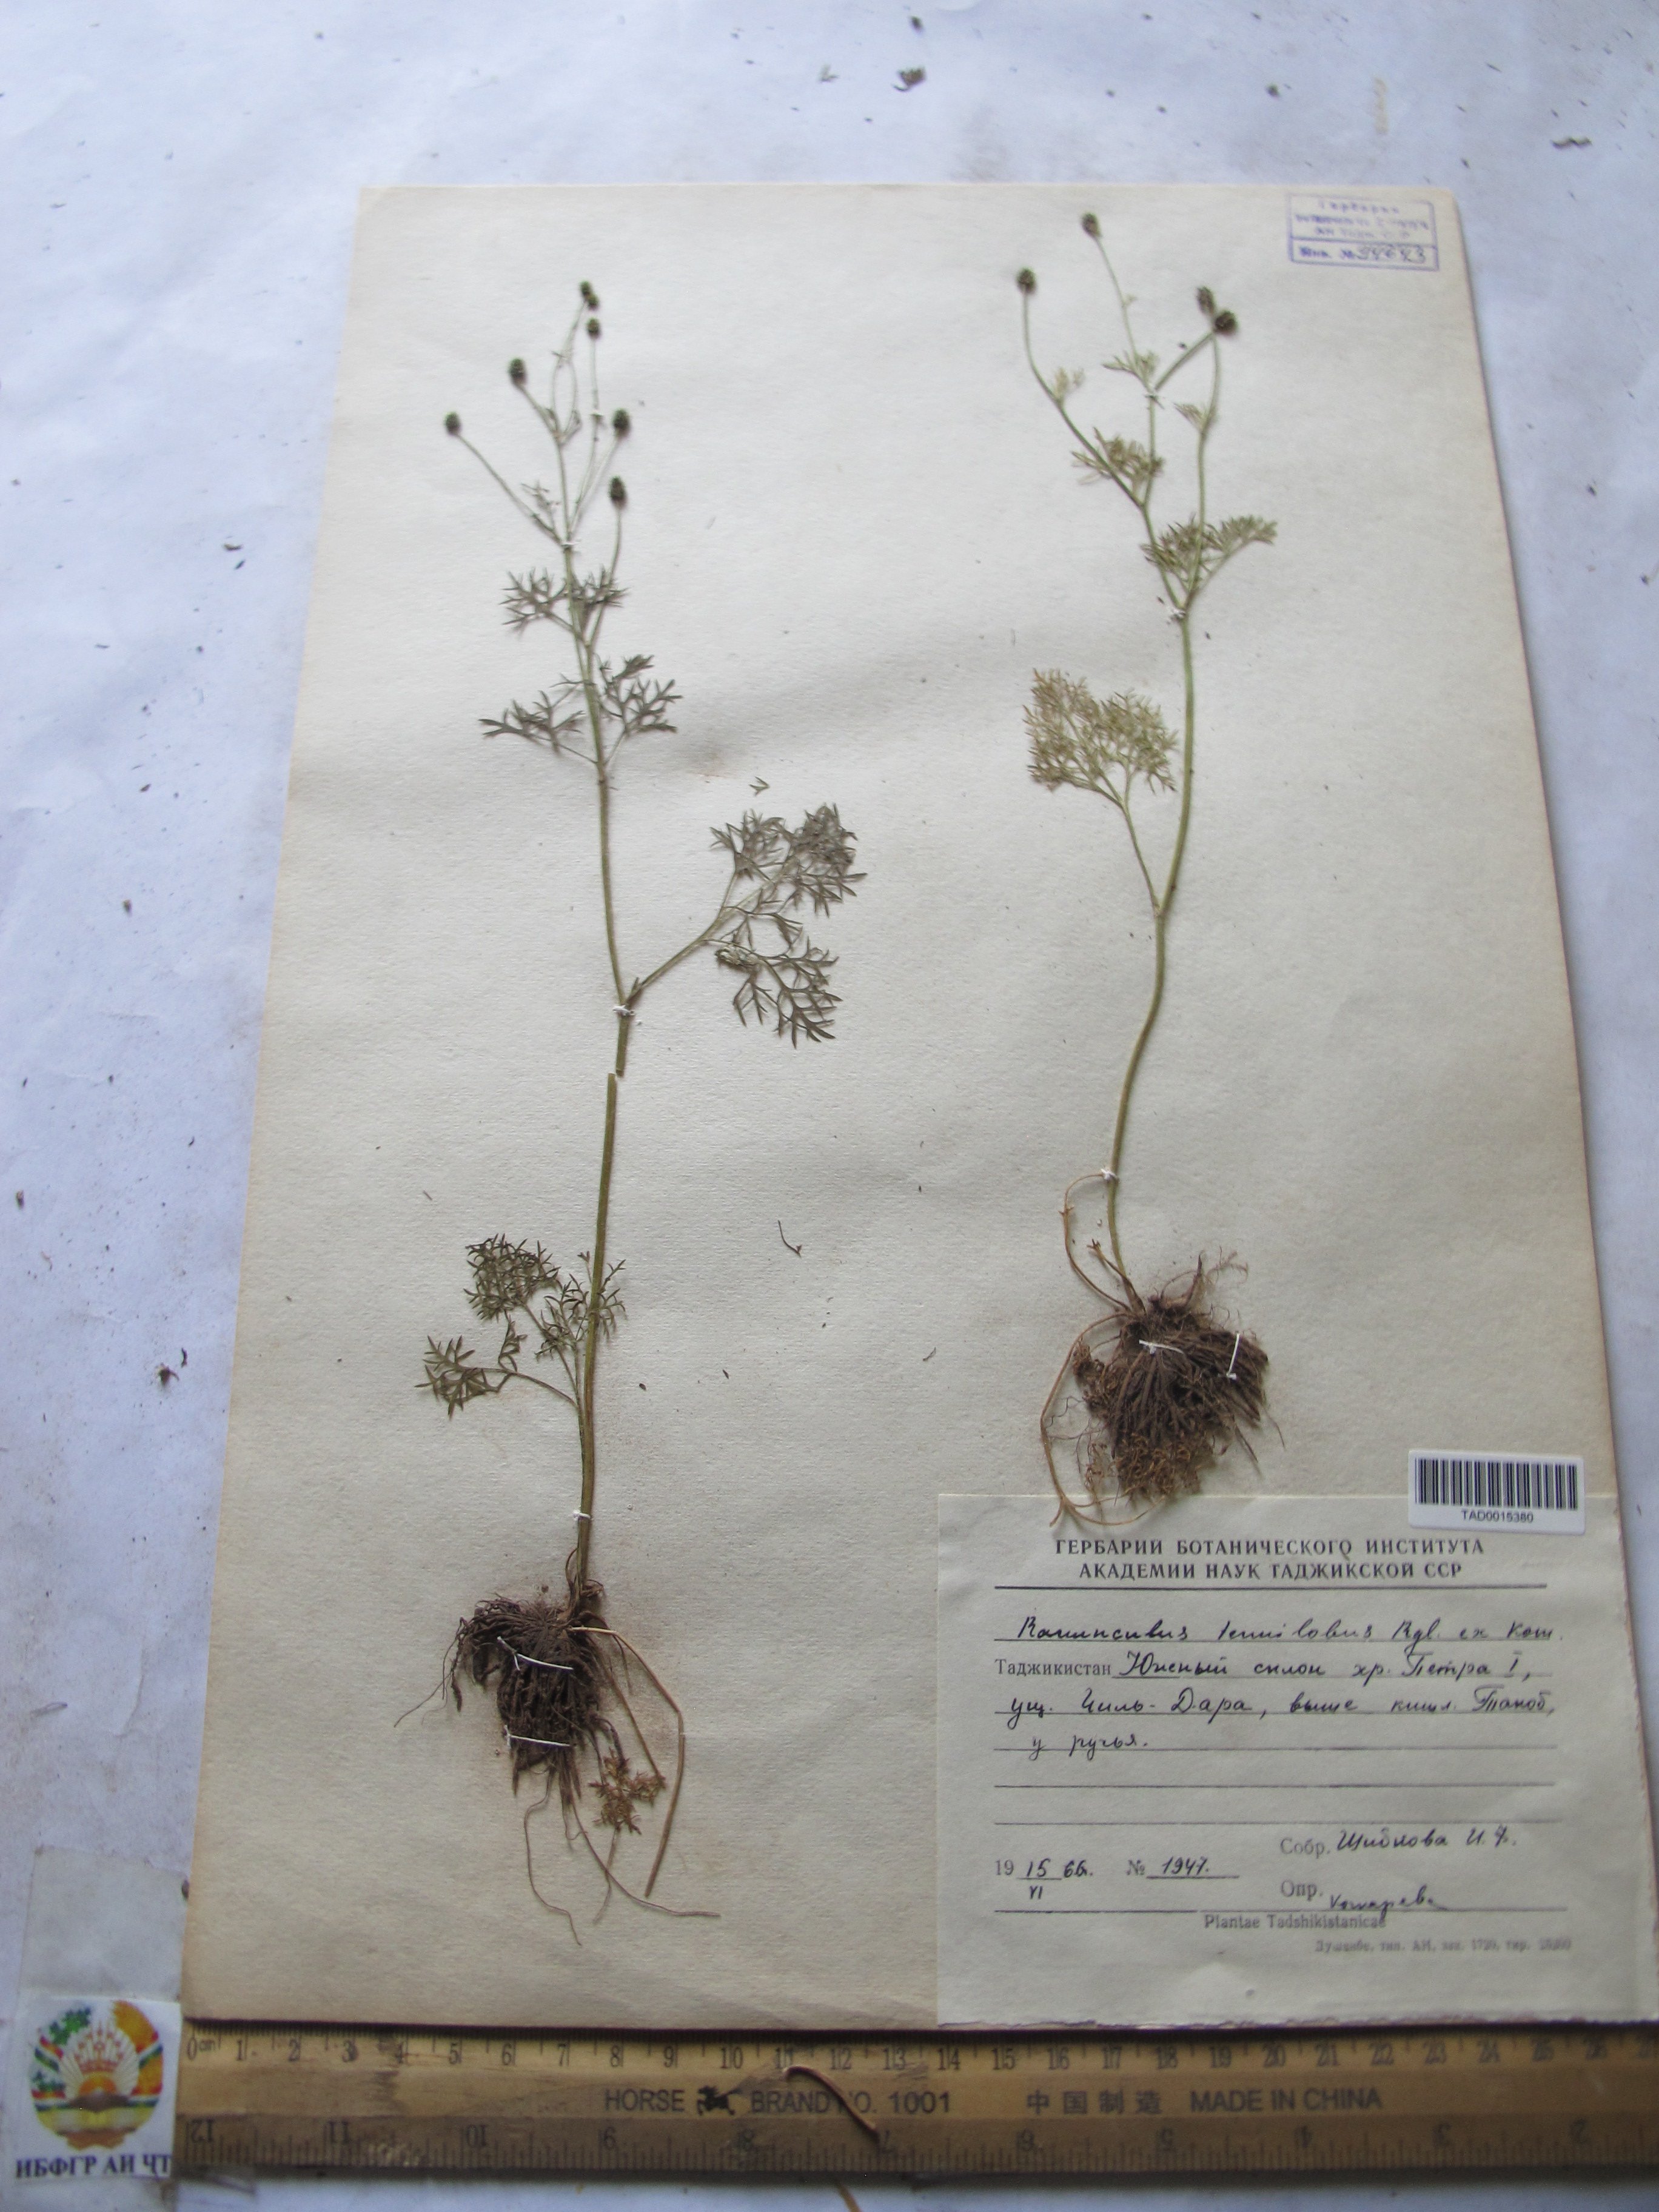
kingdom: Plantae
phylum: Tracheophyta
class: Magnoliopsida
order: Ranunculales
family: Ranunculaceae
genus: Ranunculus
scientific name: Ranunculus tenuilobus
